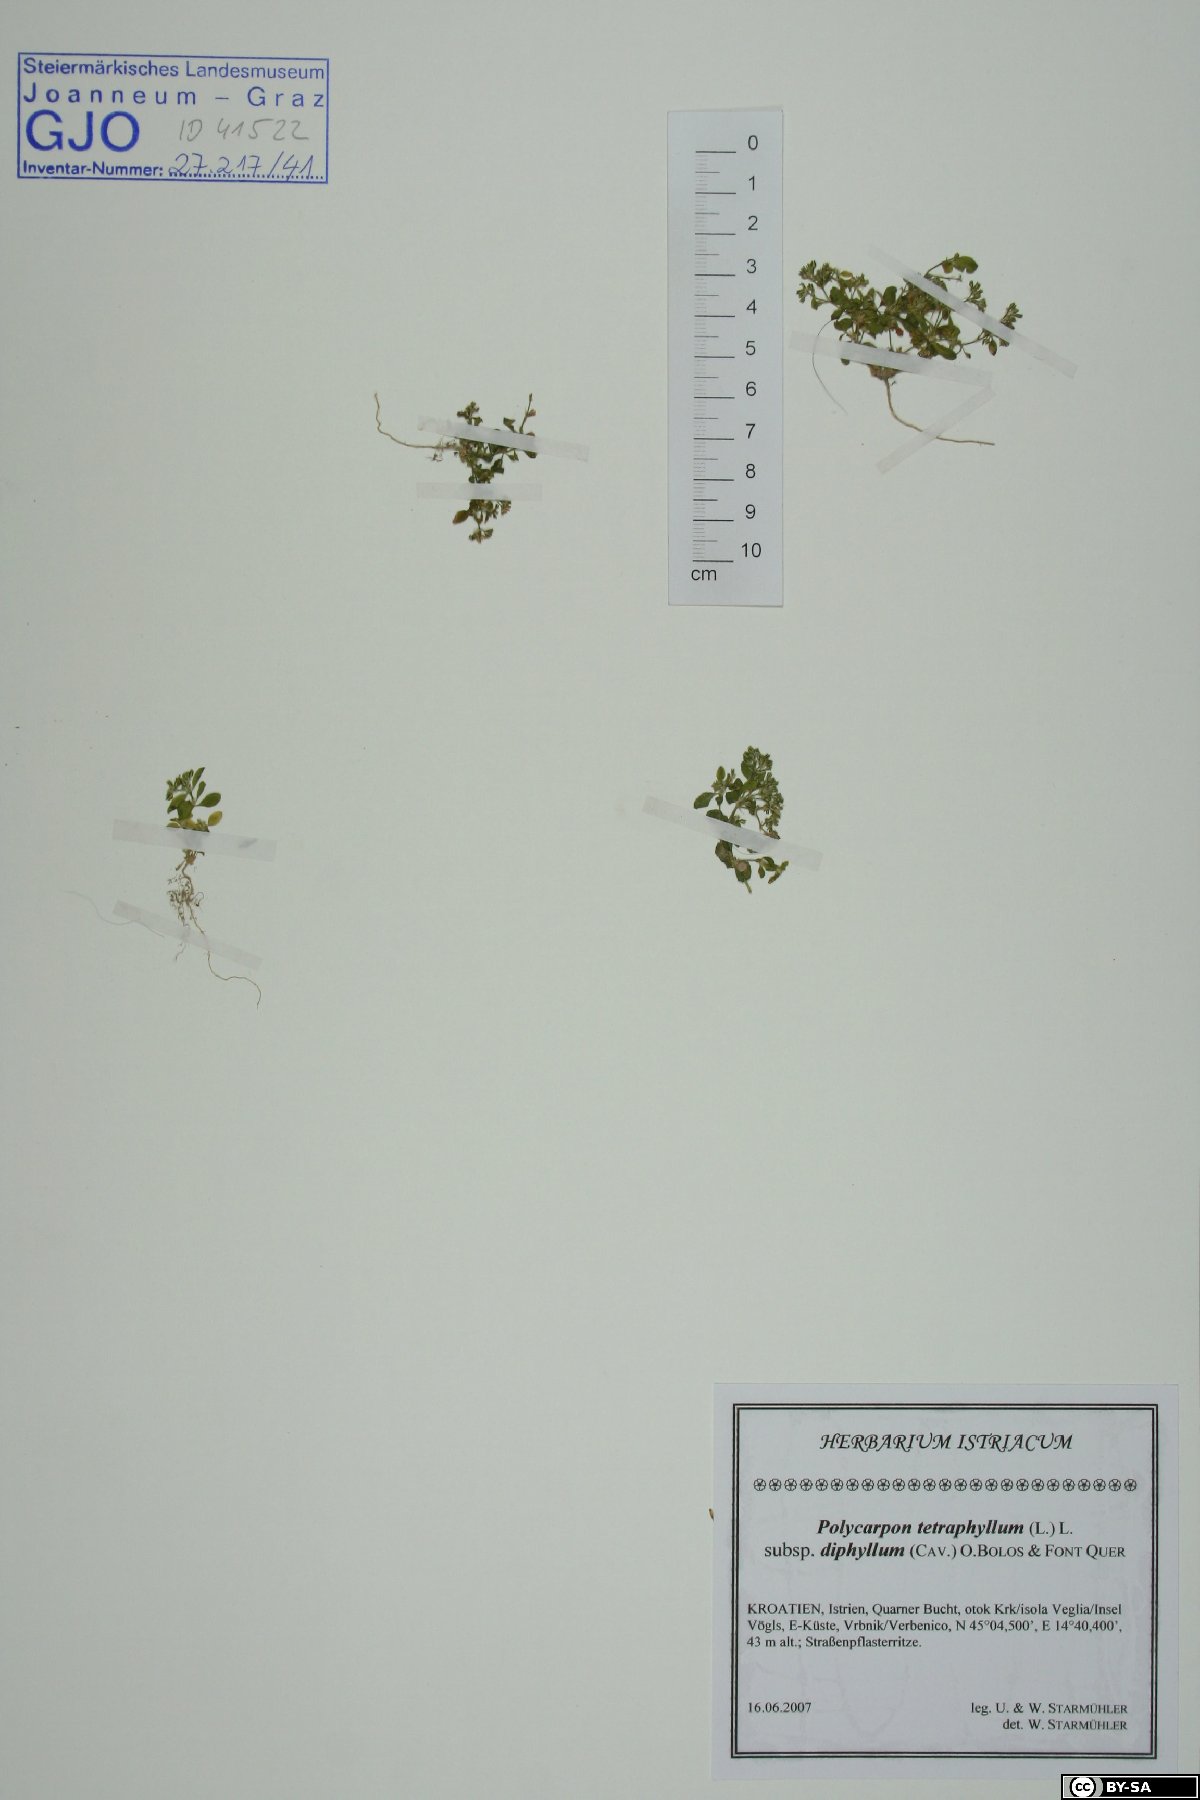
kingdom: Plantae
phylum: Tracheophyta
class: Magnoliopsida
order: Caryophyllales
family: Caryophyllaceae
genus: Polycarpon
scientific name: Polycarpon tetraphyllum
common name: Four-leaved all-seed
